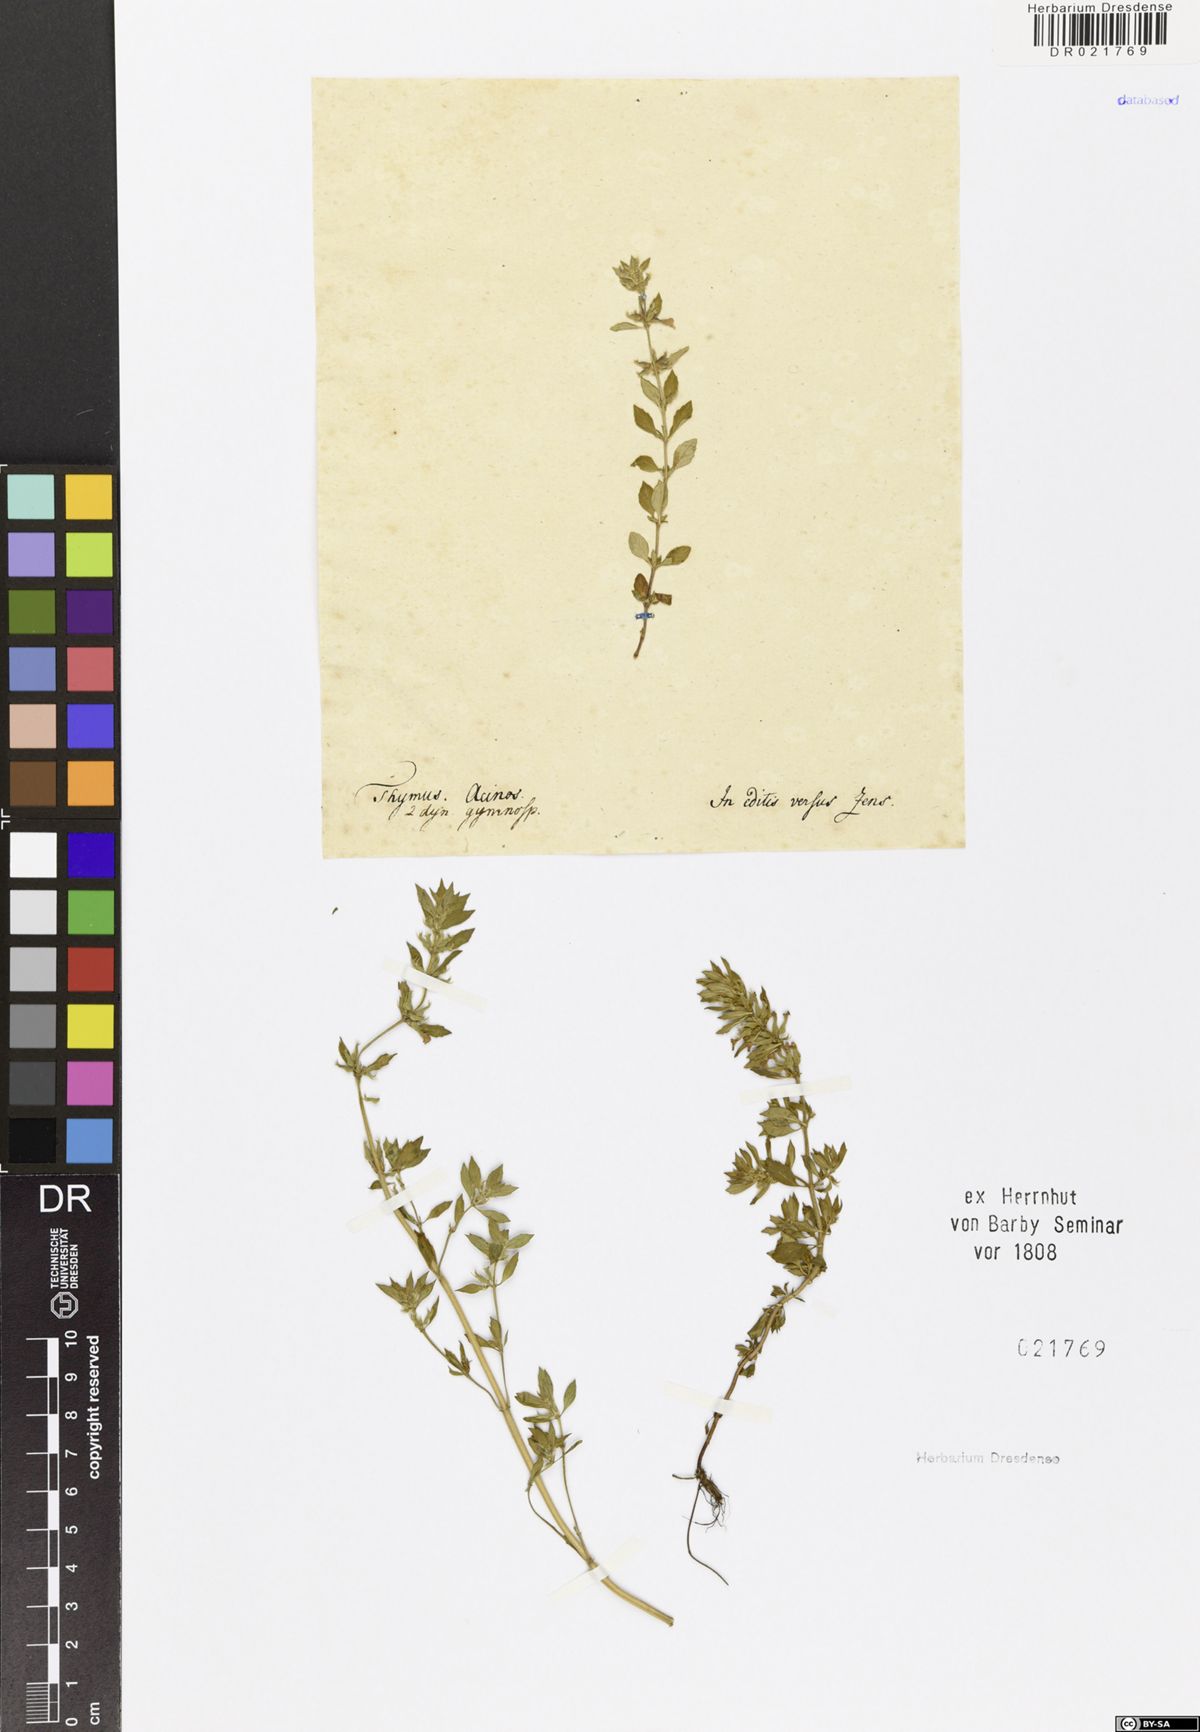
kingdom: Plantae
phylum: Tracheophyta
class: Magnoliopsida
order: Lamiales
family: Lamiaceae
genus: Clinopodium
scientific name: Clinopodium acinos
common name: Basil thyme
